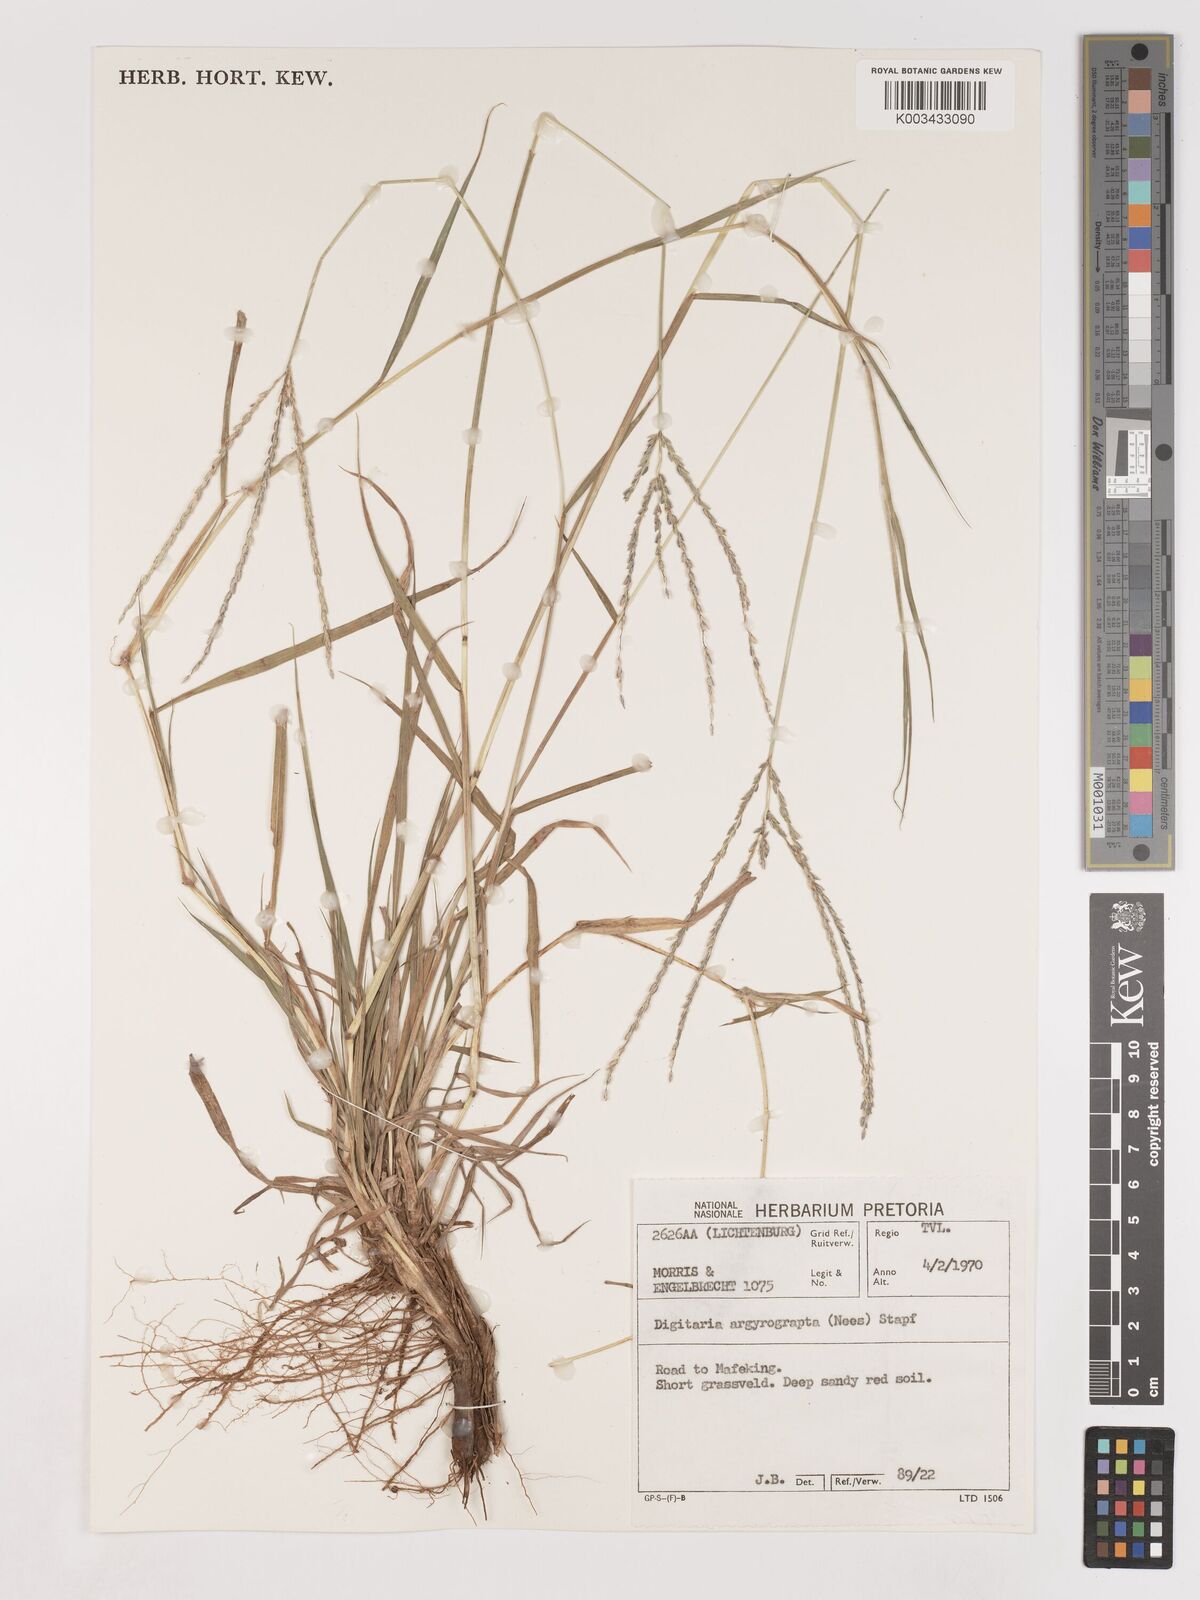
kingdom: Plantae
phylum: Tracheophyta
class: Liliopsida
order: Poales
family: Poaceae
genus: Digitaria
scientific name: Digitaria argyrograpta
